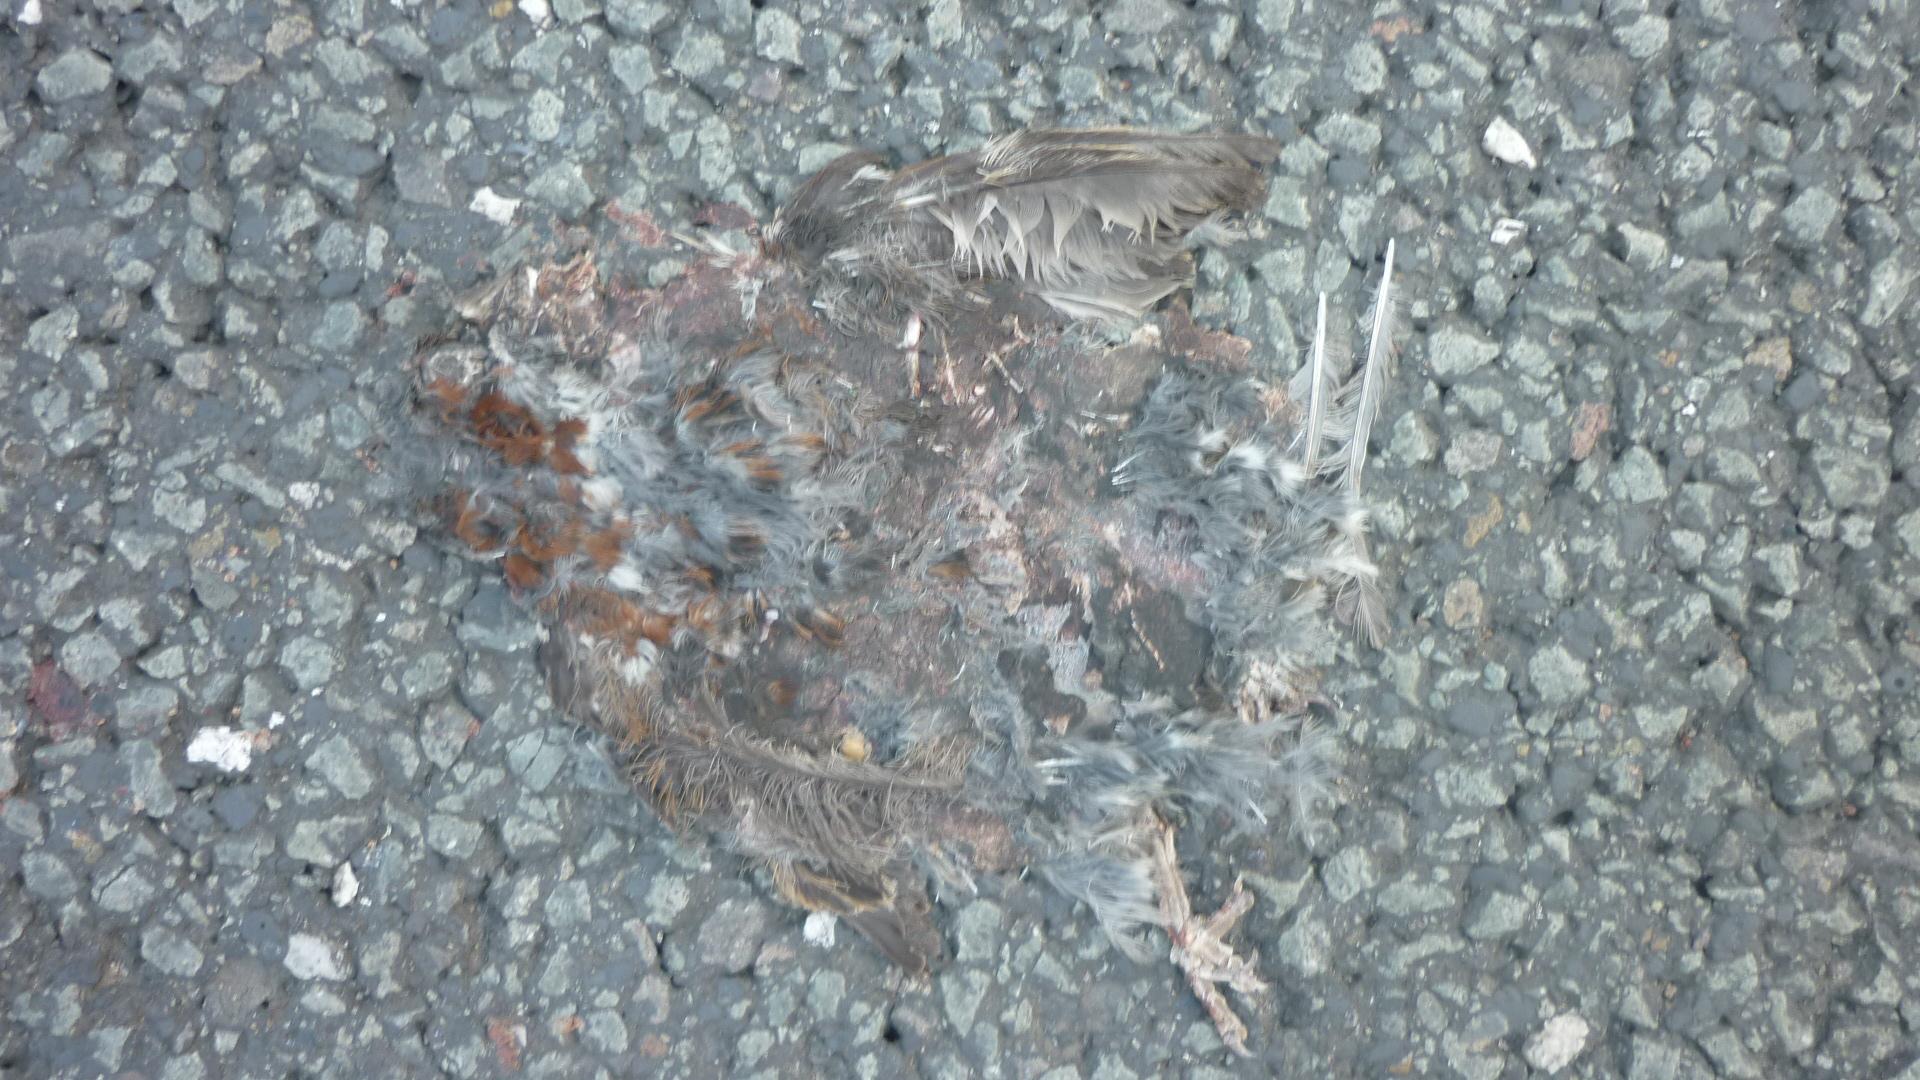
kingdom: Animalia
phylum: Chordata
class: Aves
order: Passeriformes
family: Passeridae
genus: Passer
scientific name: Passer domesticus
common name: House sparrow
